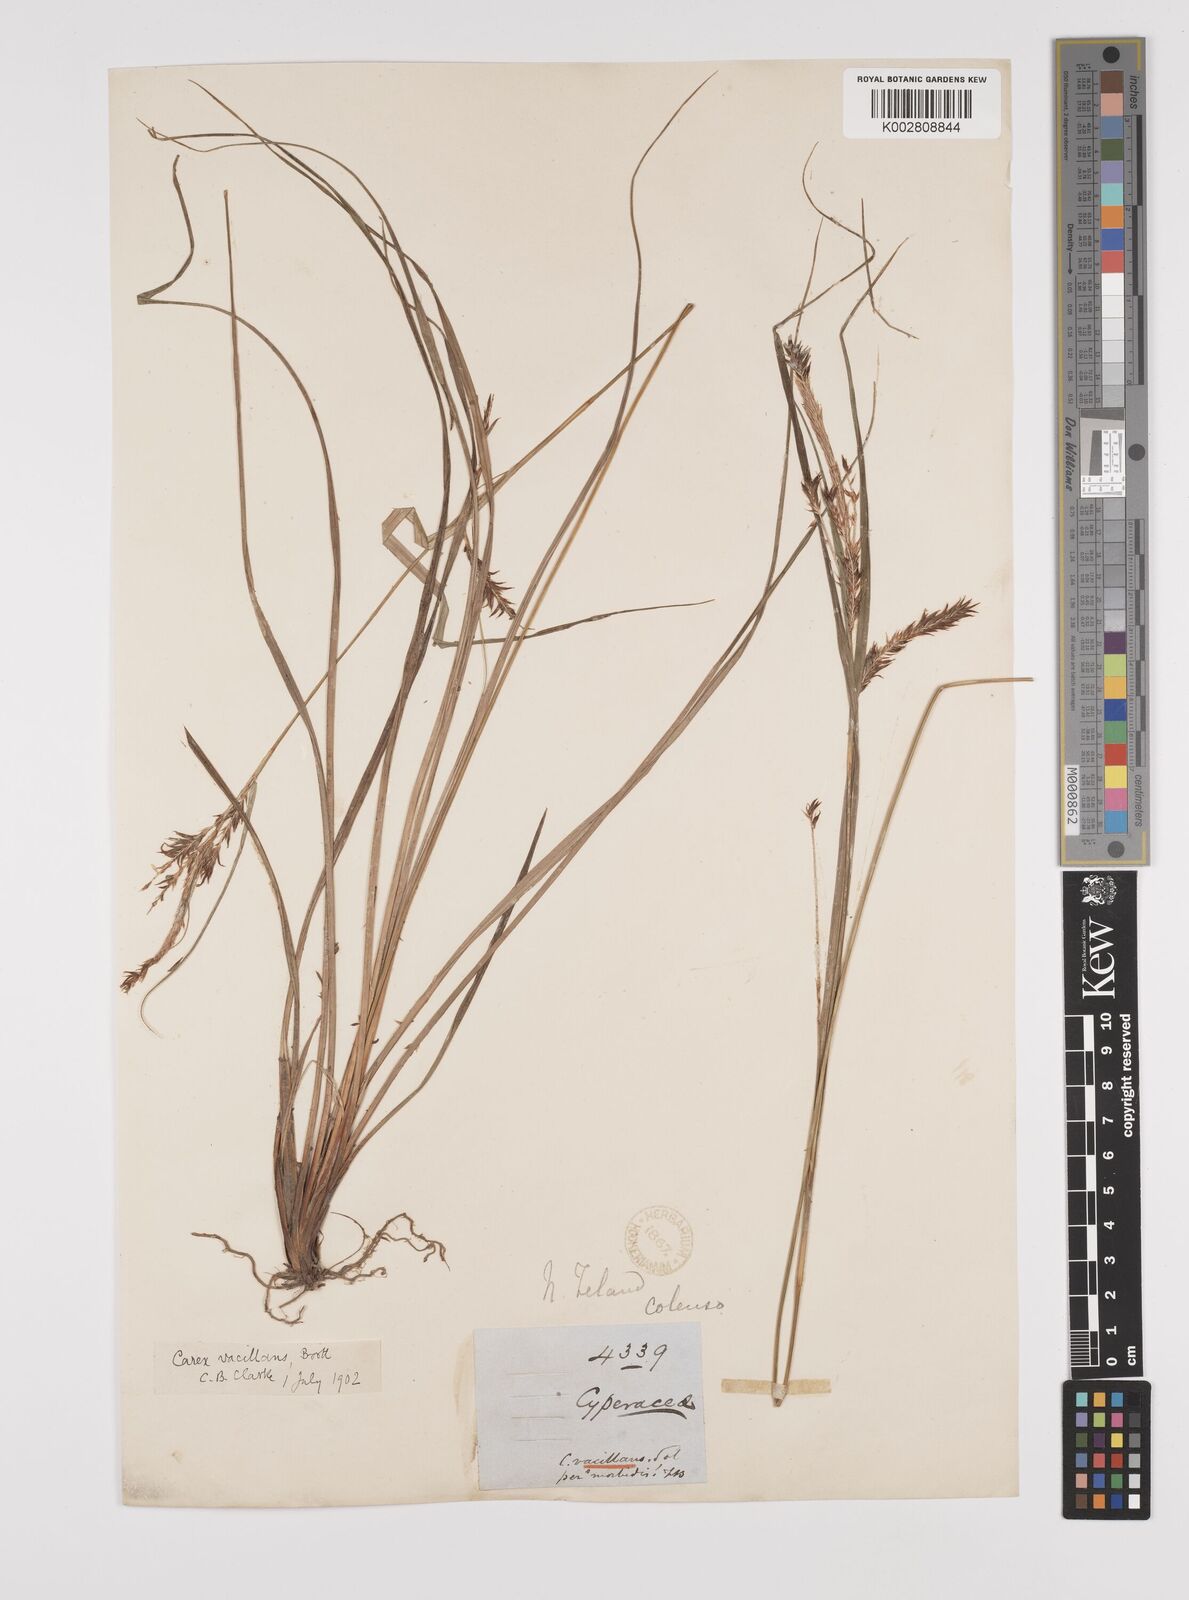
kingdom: Plantae
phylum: Tracheophyta
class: Liliopsida
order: Poales
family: Cyperaceae
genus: Carex
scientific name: Carex spinirostris
